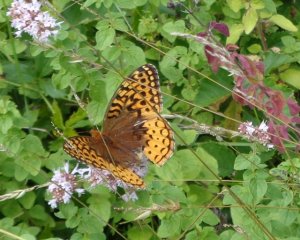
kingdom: Animalia
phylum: Arthropoda
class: Insecta
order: Lepidoptera
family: Nymphalidae
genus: Speyeria
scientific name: Speyeria cybele
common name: Great Spangled Fritillary
